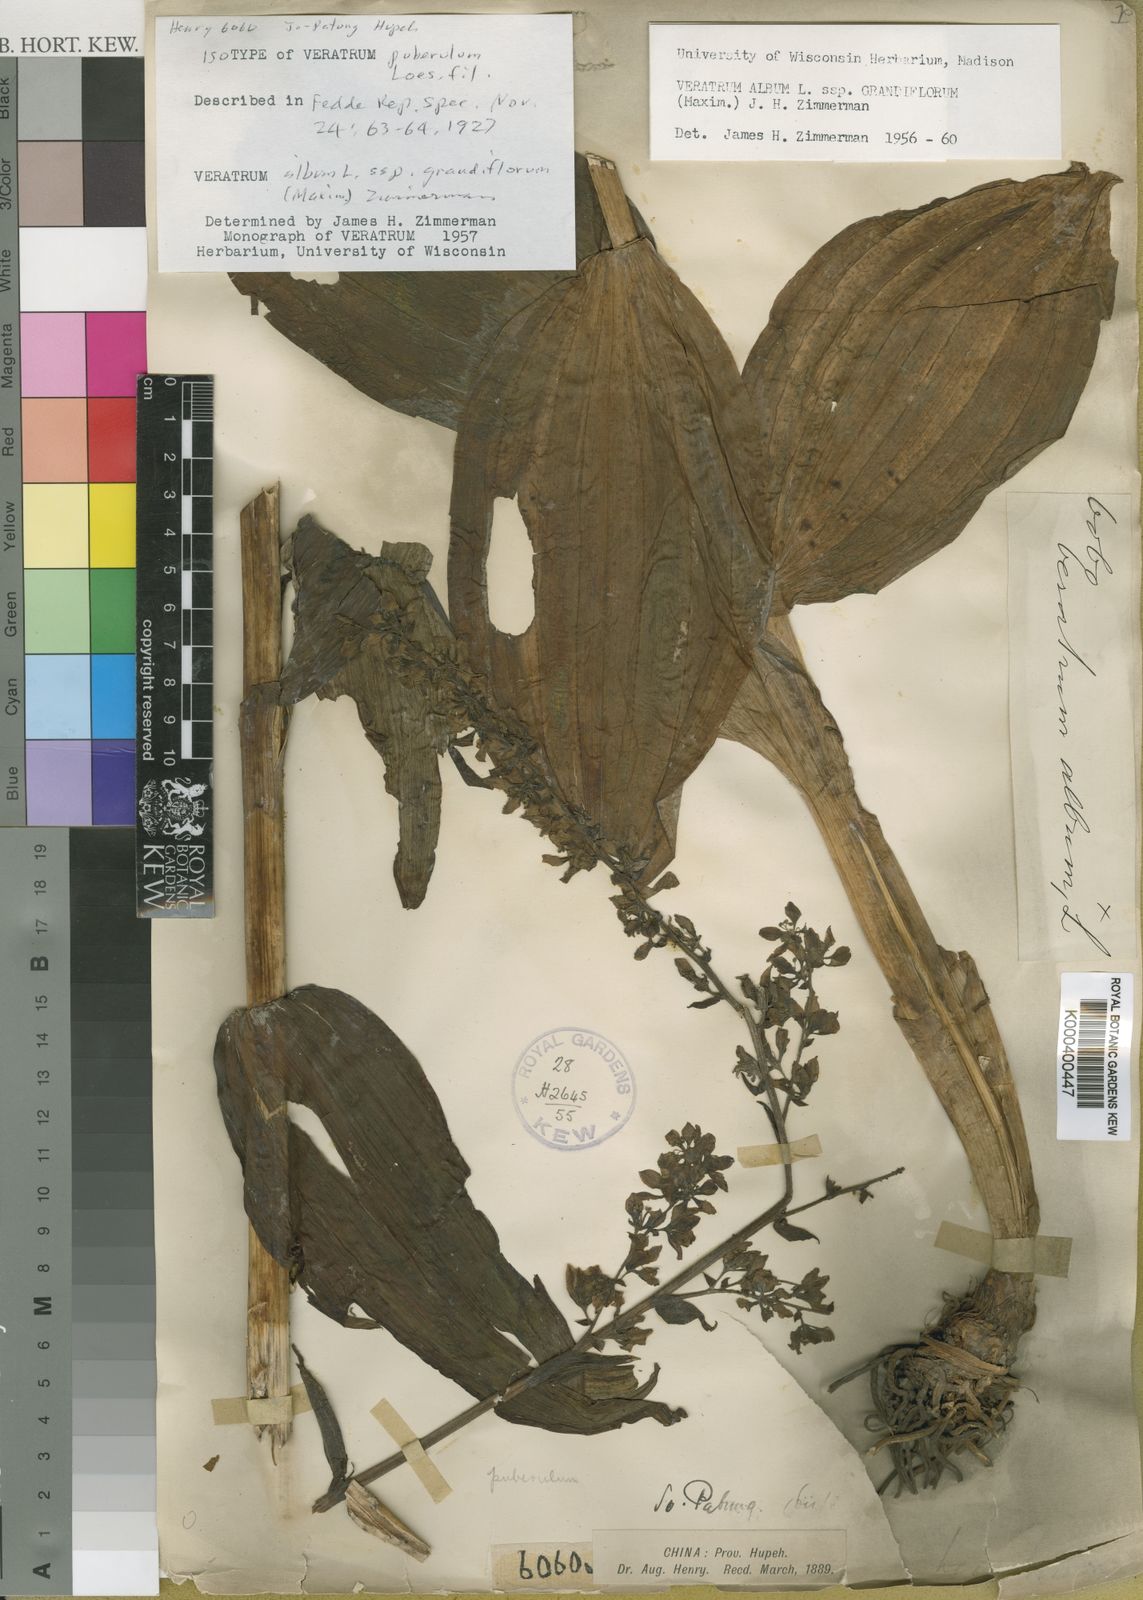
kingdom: Plantae
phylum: Tracheophyta
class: Liliopsida
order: Liliales
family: Melanthiaceae
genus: Veratrum
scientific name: Veratrum album
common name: White veratrum
